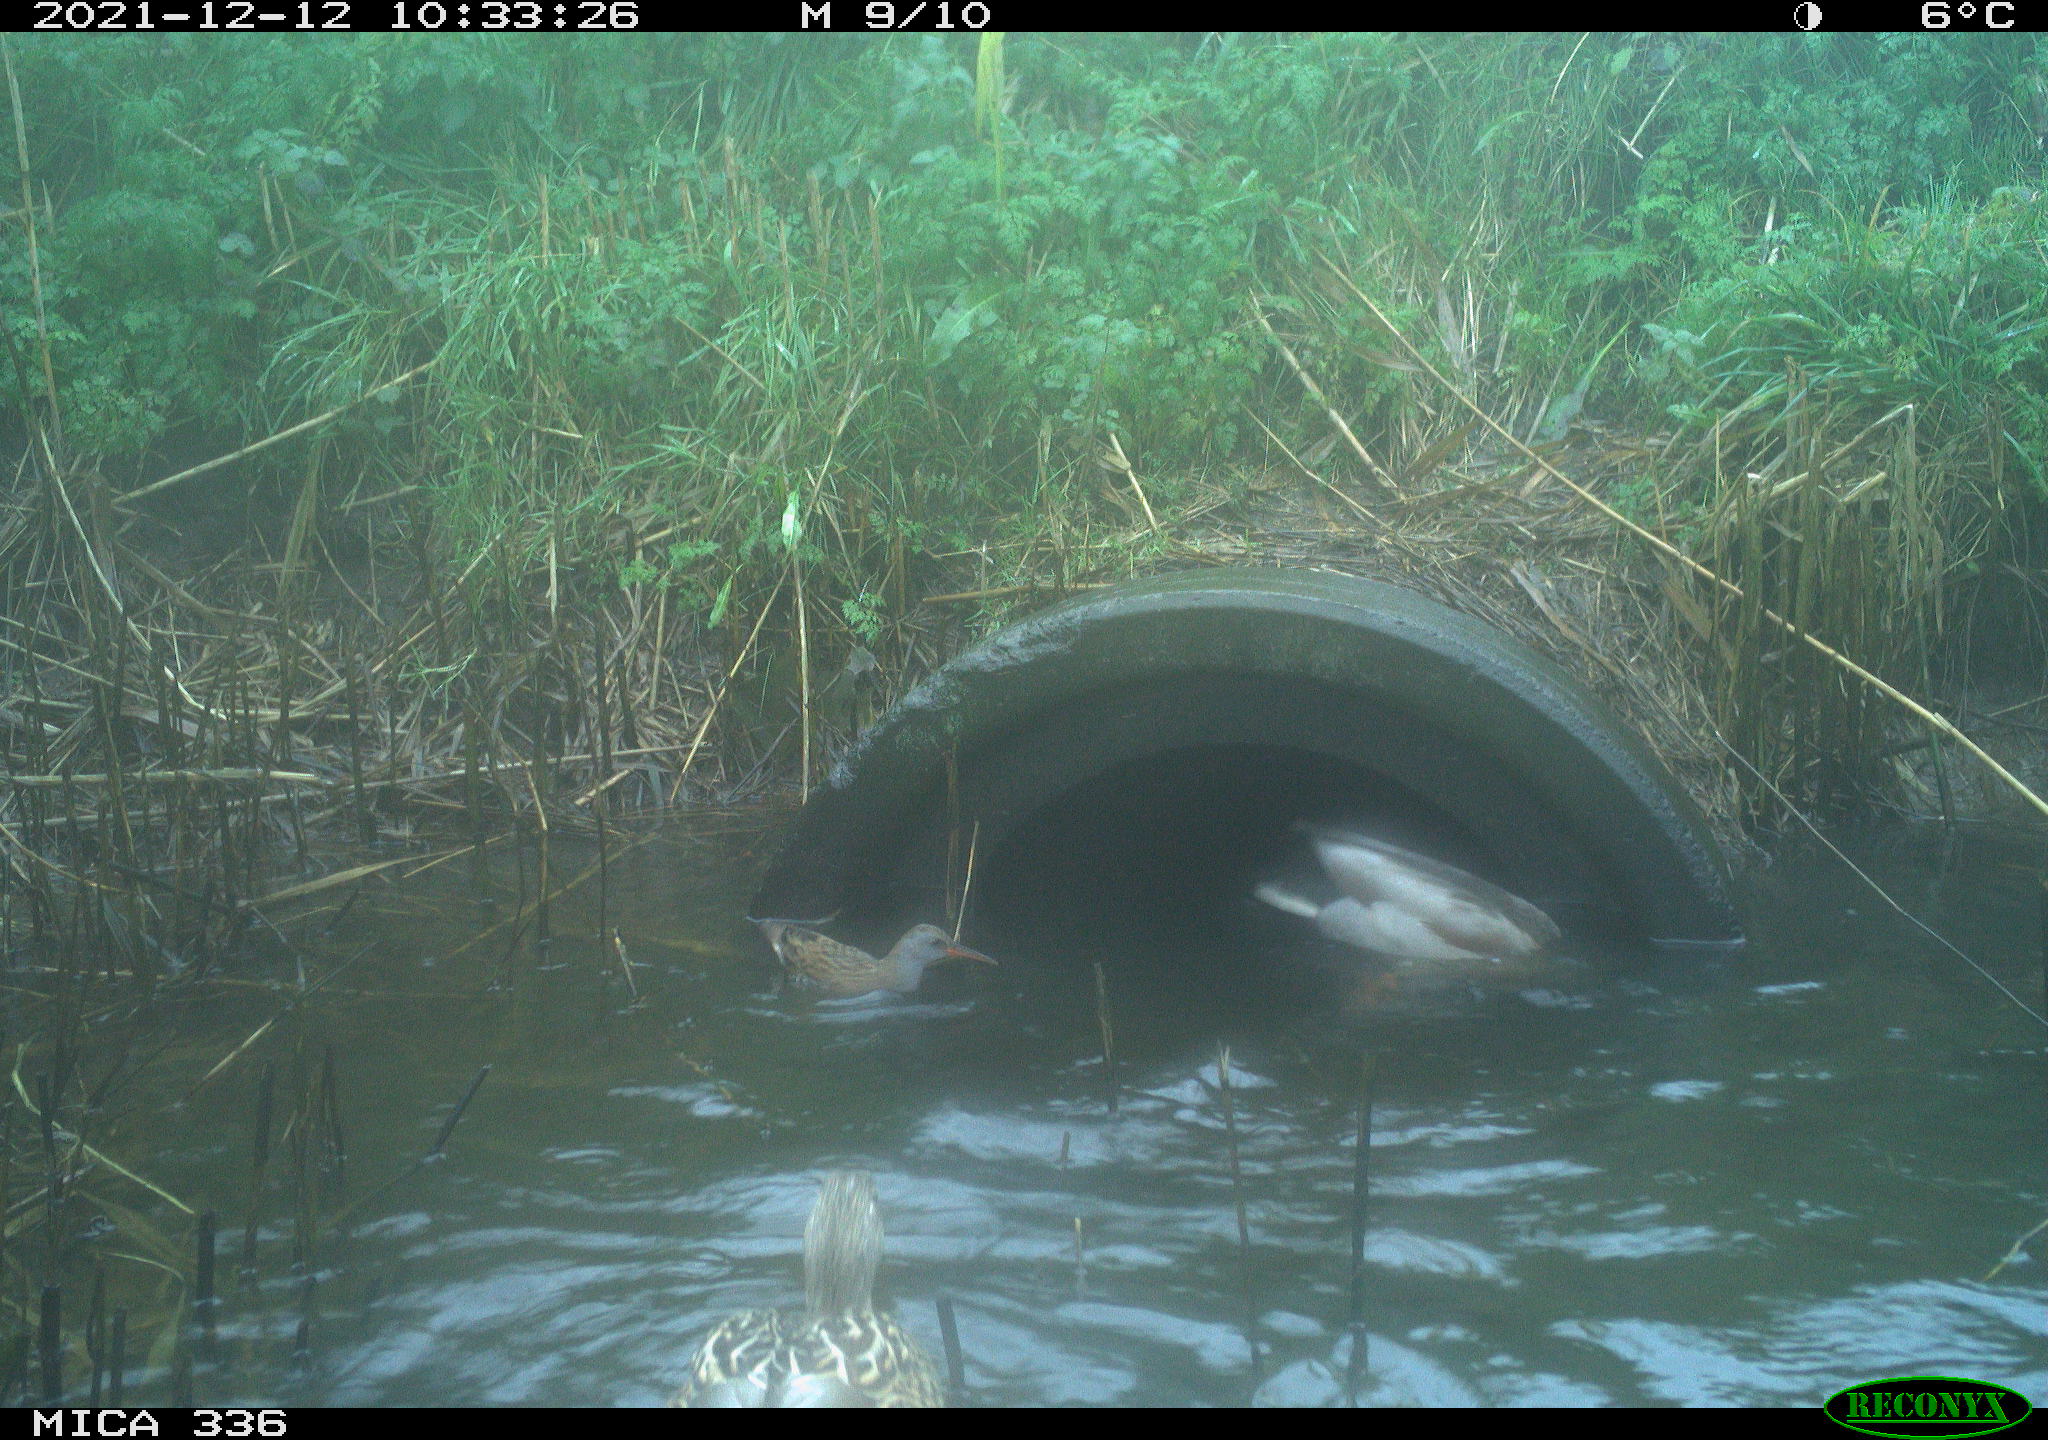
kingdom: Animalia
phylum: Chordata
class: Aves
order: Anseriformes
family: Anatidae
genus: Anas
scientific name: Anas platyrhynchos
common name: Mallard
